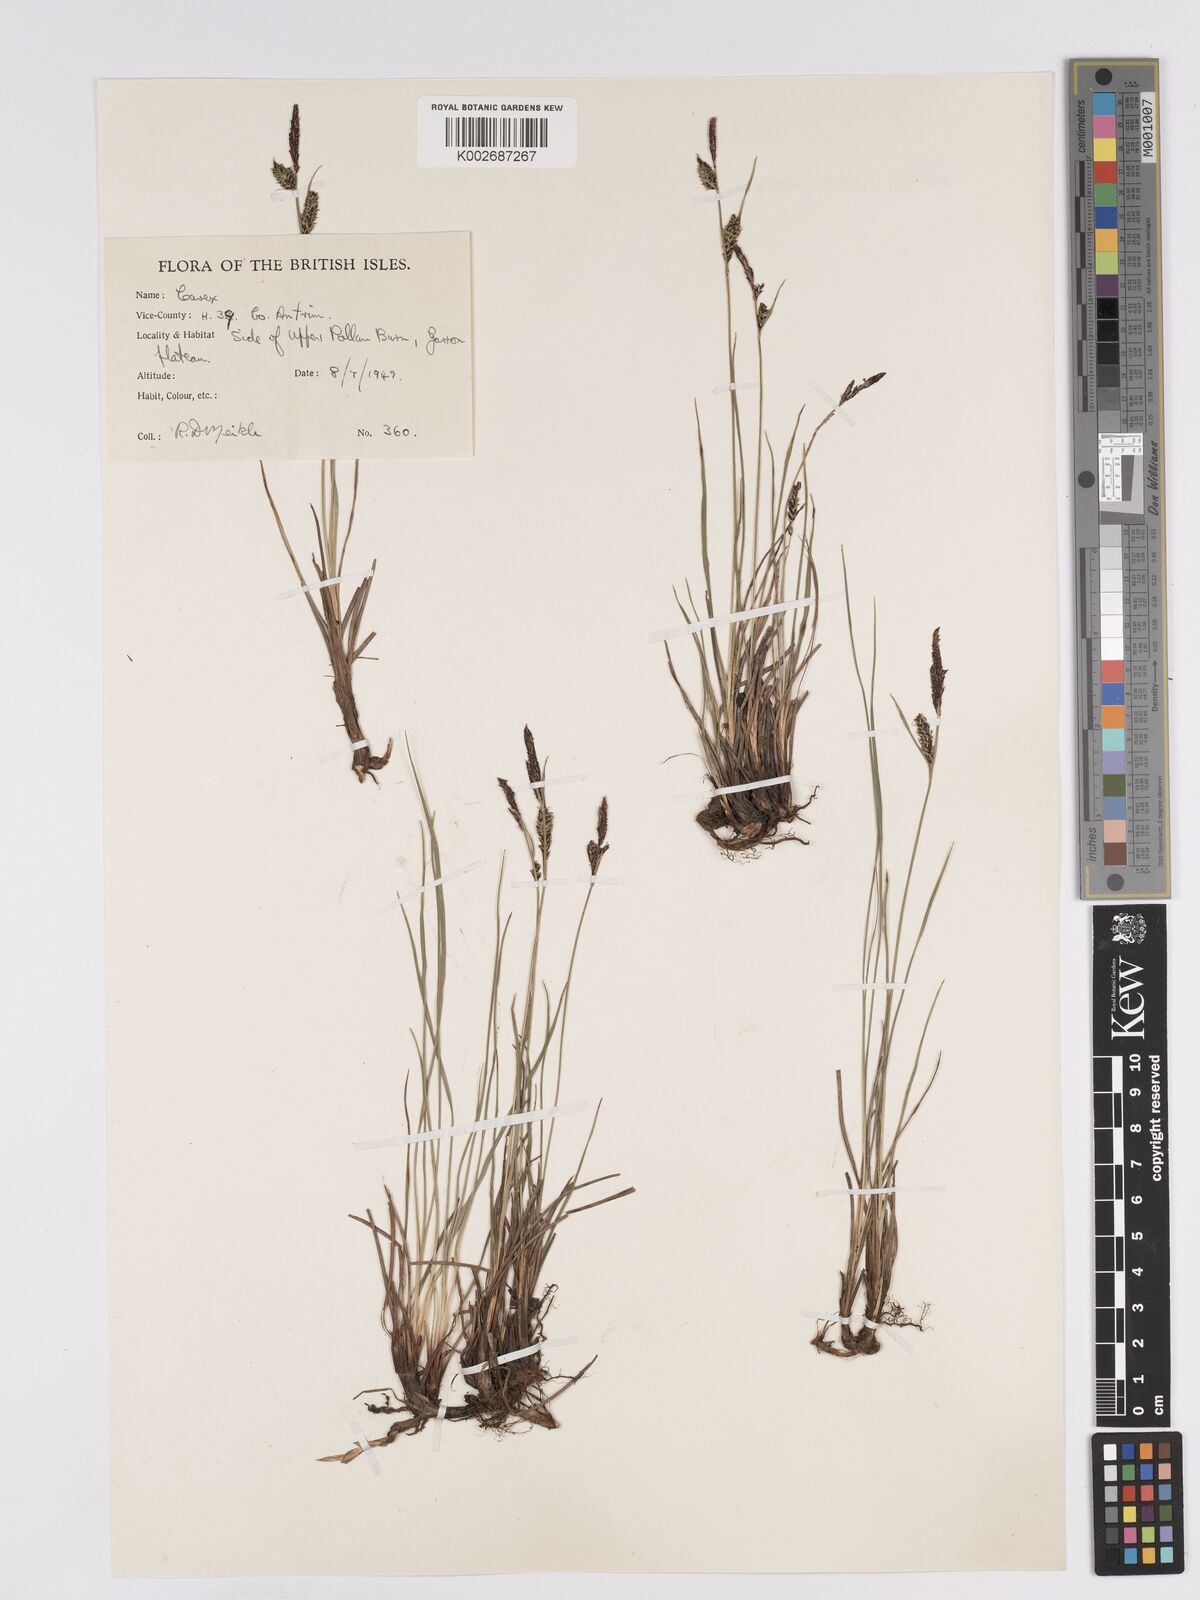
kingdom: Plantae
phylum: Tracheophyta
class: Liliopsida
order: Poales
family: Cyperaceae
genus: Carex
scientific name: Carex nigra
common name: Common sedge
